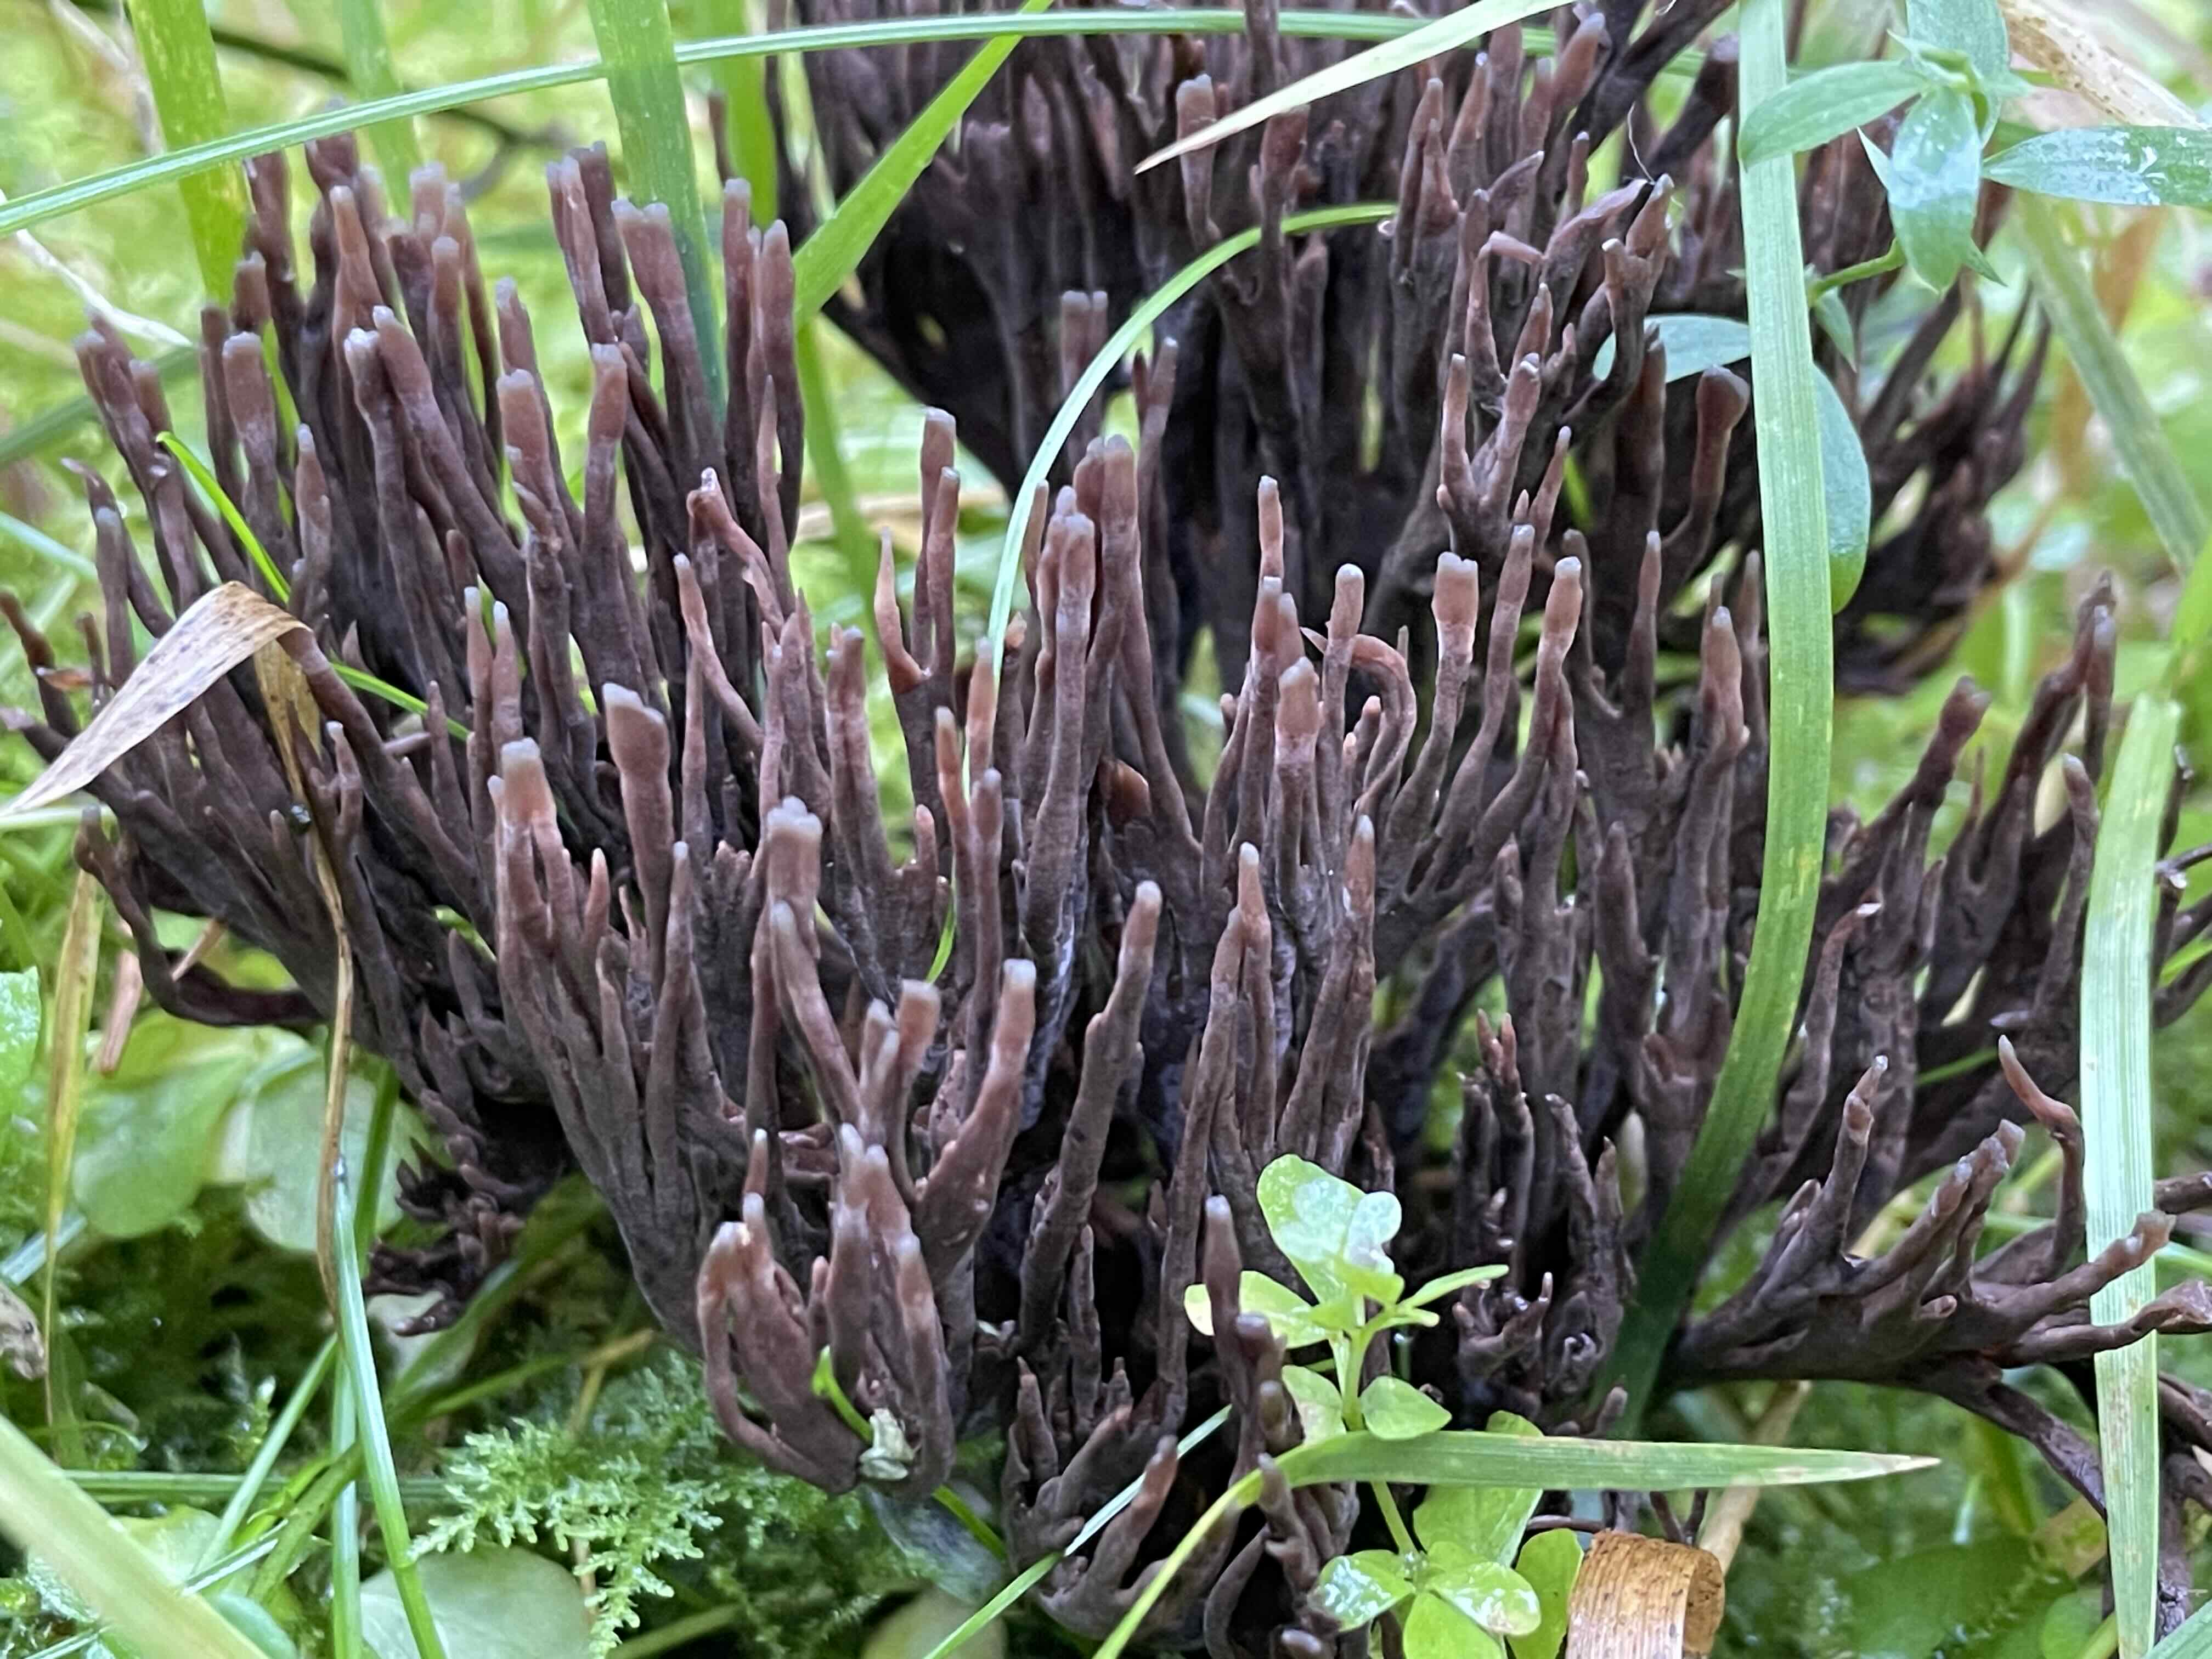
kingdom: Fungi
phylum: Basidiomycota
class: Agaricomycetes
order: Thelephorales
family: Thelephoraceae
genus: Thelephora
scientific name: Thelephora palmata
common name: grenet frynsesvamp
